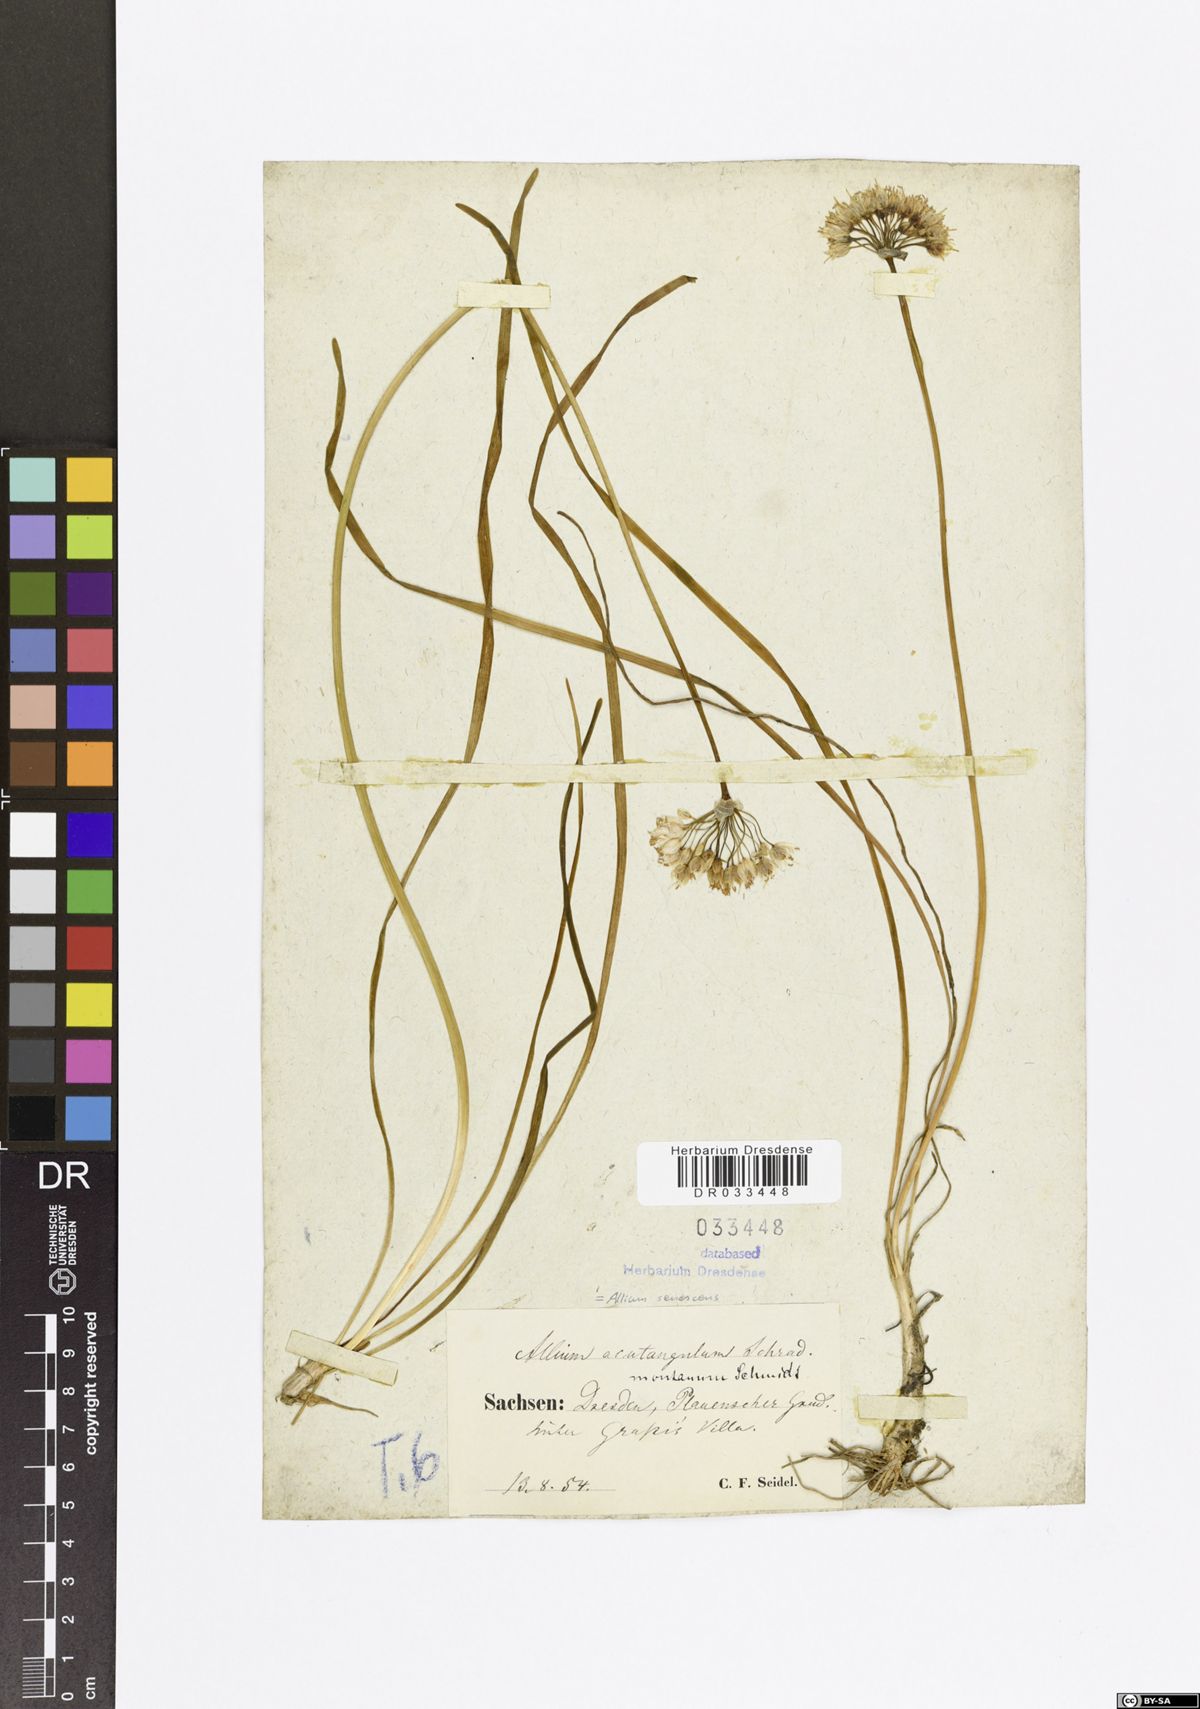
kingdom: Plantae
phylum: Tracheophyta
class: Liliopsida
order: Asparagales
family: Amaryllidaceae
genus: Allium
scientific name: Allium senescens
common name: German garlic
